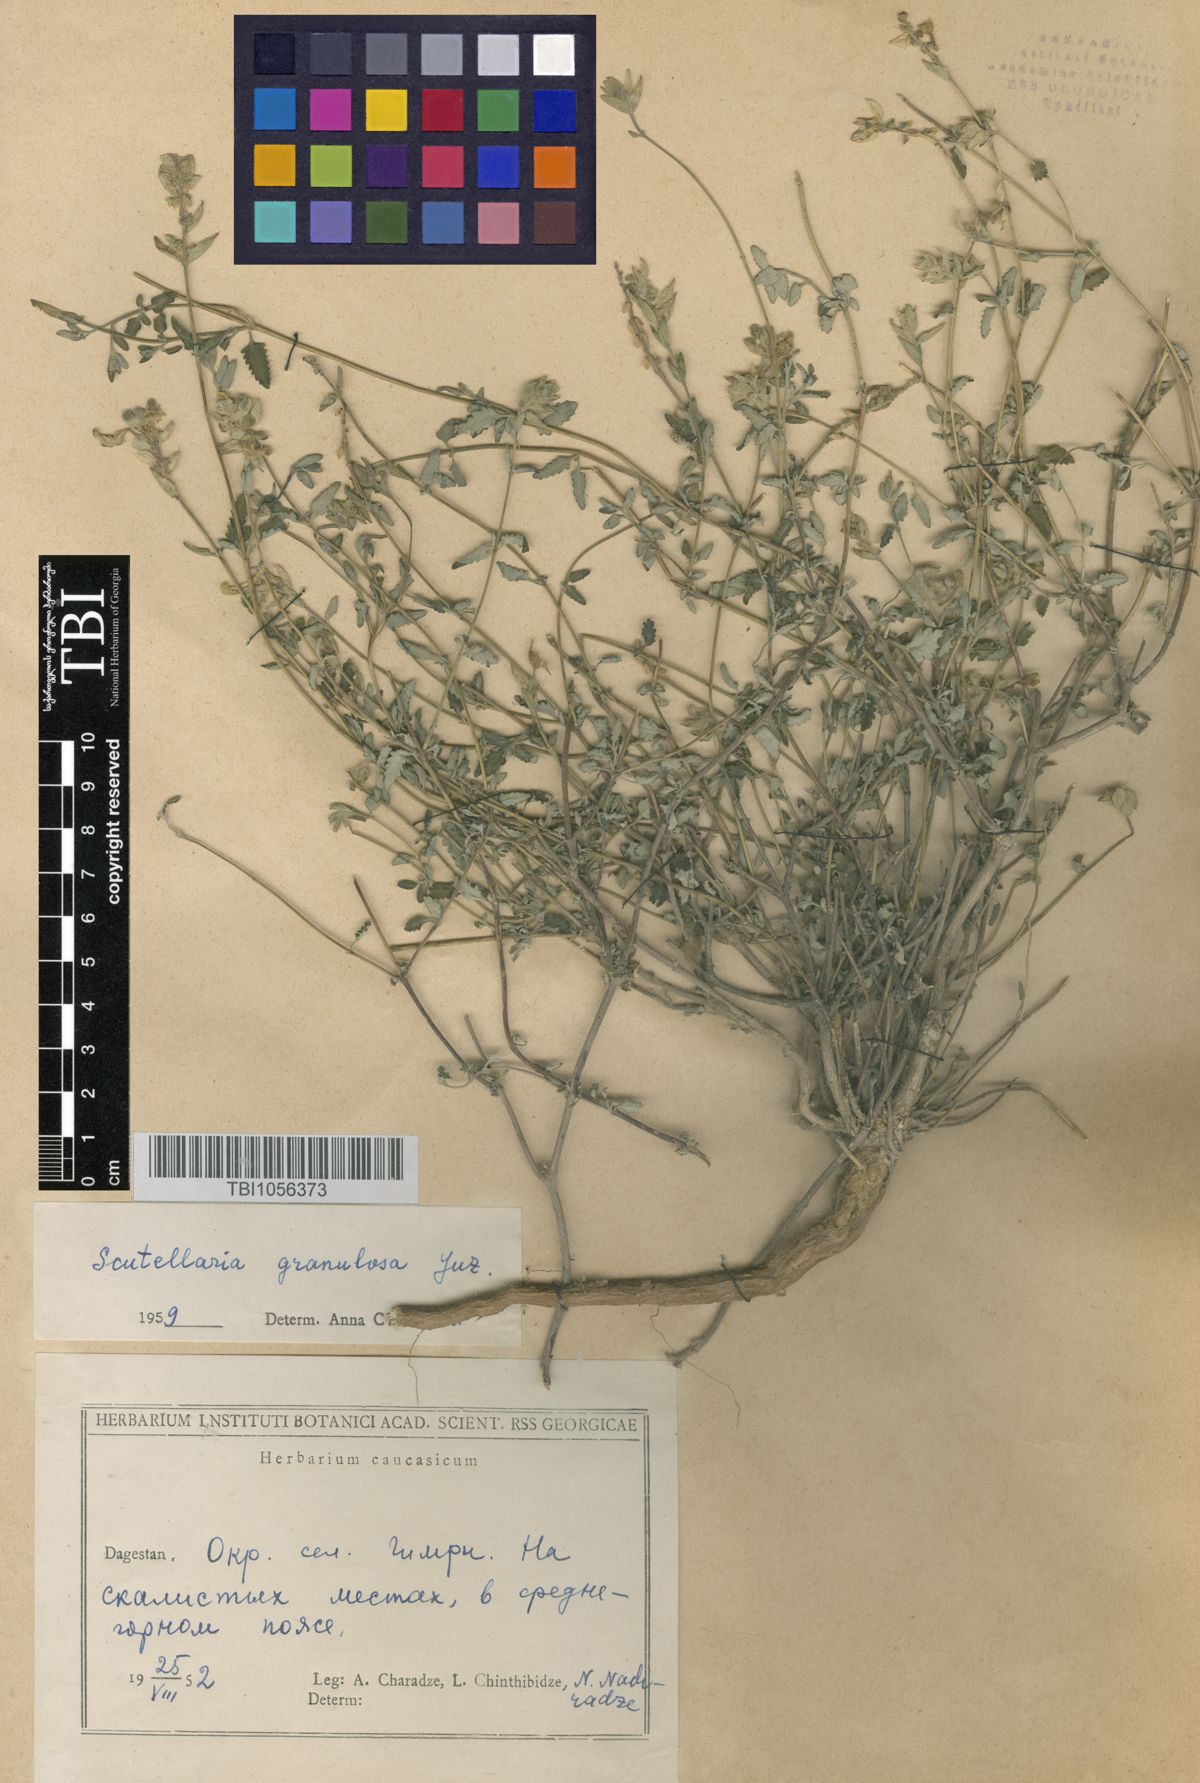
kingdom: Plantae
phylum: Tracheophyta
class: Magnoliopsida
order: Lamiales
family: Lamiaceae
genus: Scutellaria
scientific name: Scutellaria granulosa
